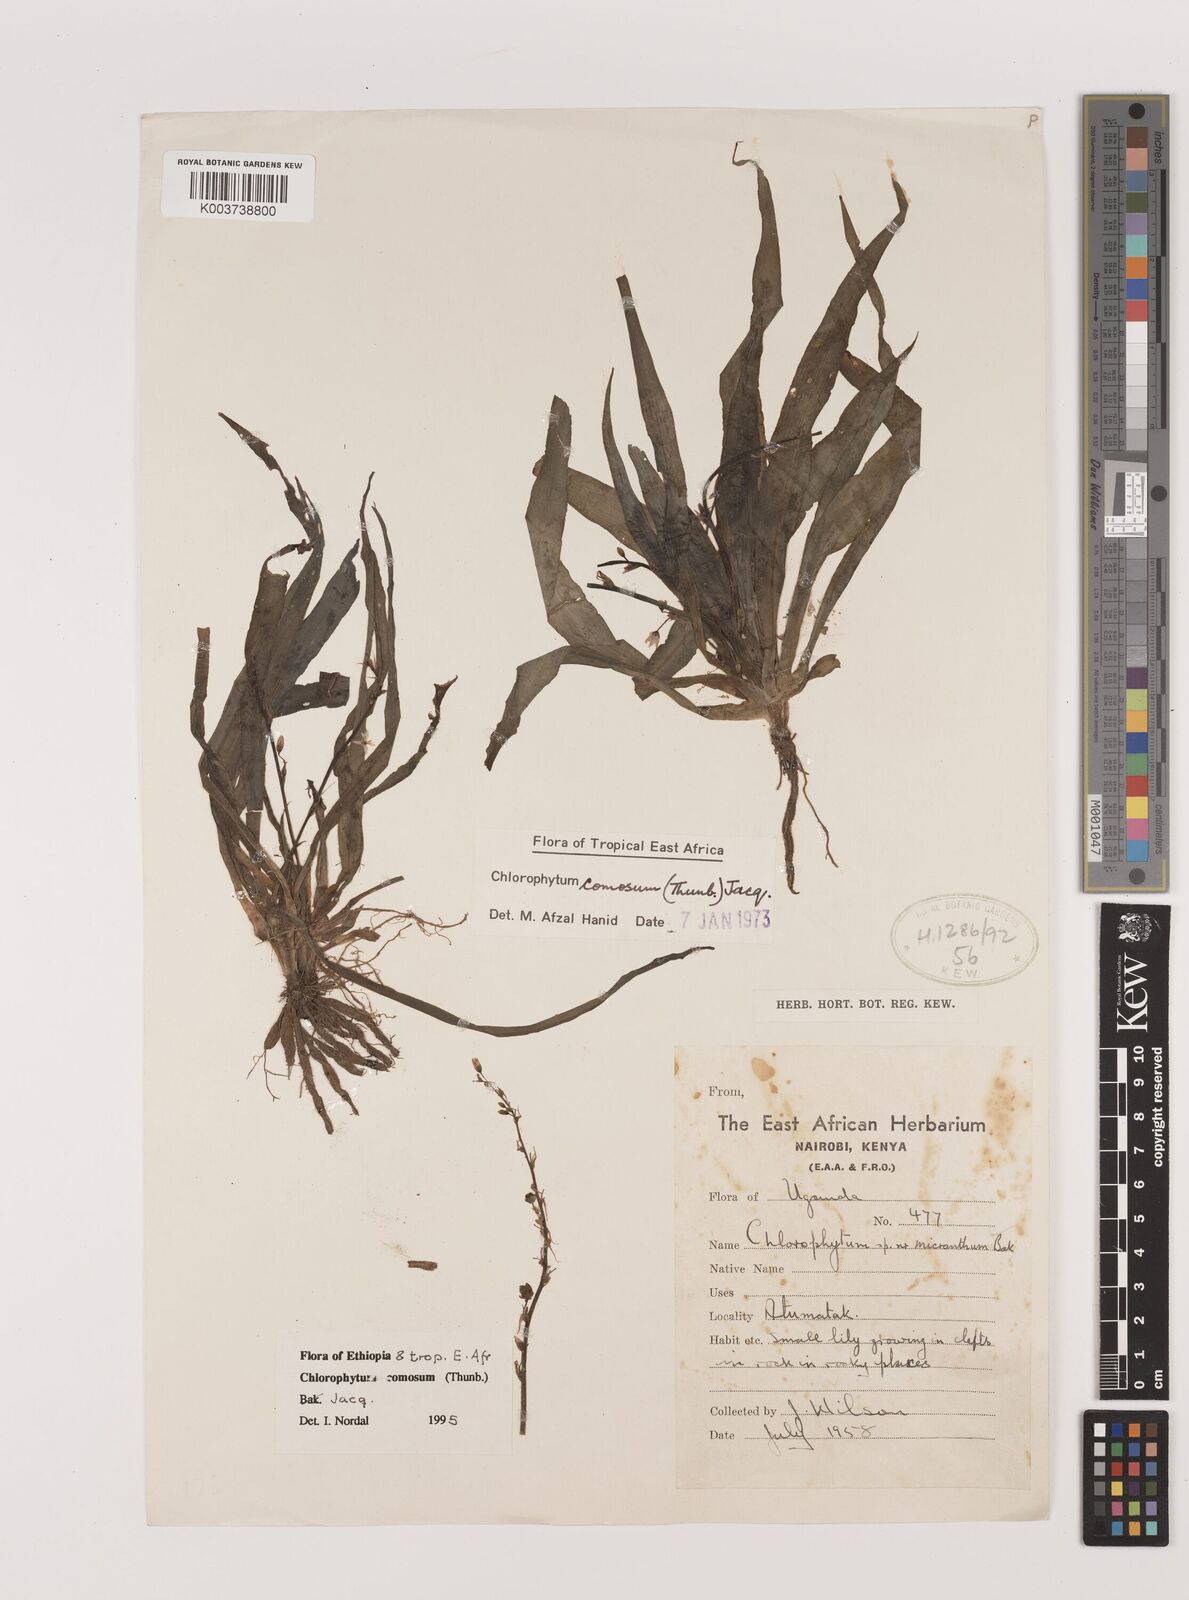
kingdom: Plantae
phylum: Tracheophyta
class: Liliopsida
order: Asparagales
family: Asparagaceae
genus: Chlorophytum
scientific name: Chlorophytum comosum
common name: Spider plant
